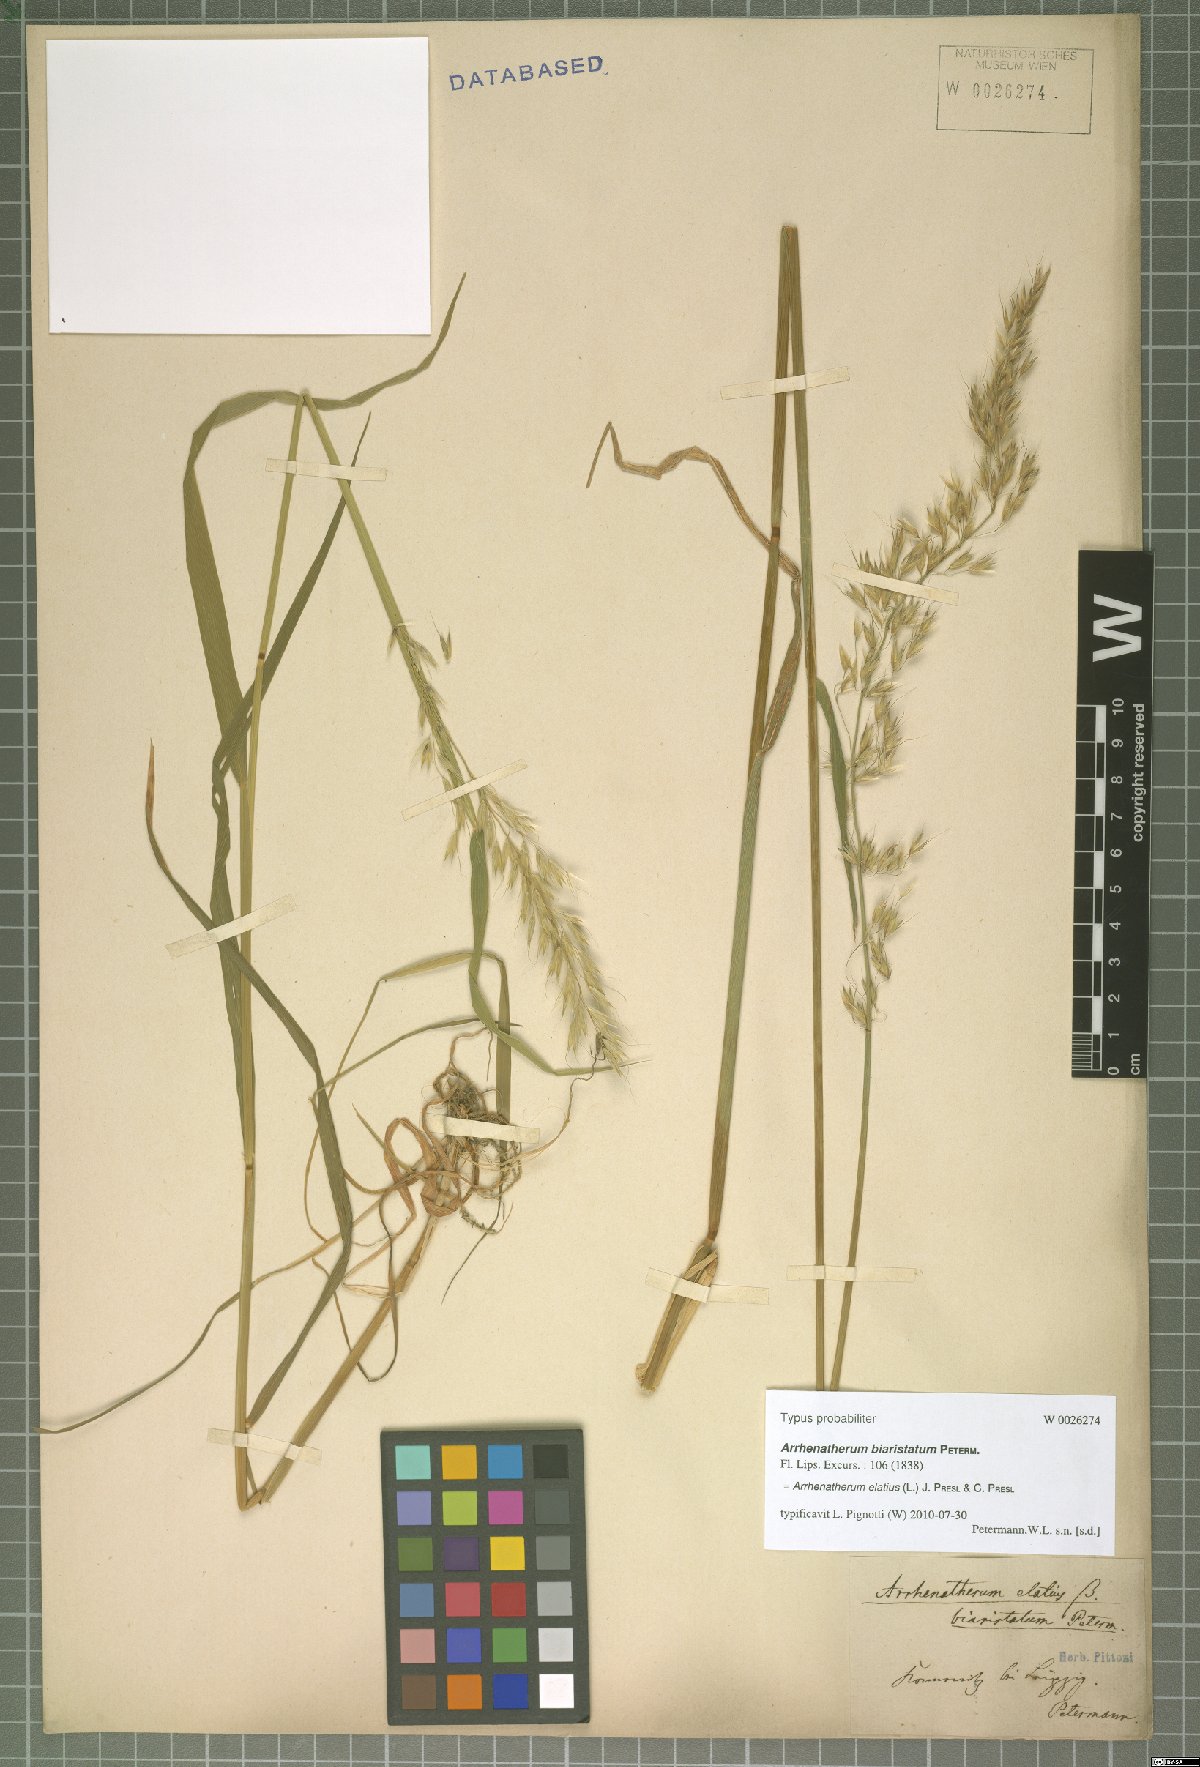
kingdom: Plantae
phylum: Tracheophyta
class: Liliopsida
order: Poales
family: Poaceae
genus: Arrhenatherum
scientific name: Arrhenatherum elatius
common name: Tall oatgrass
